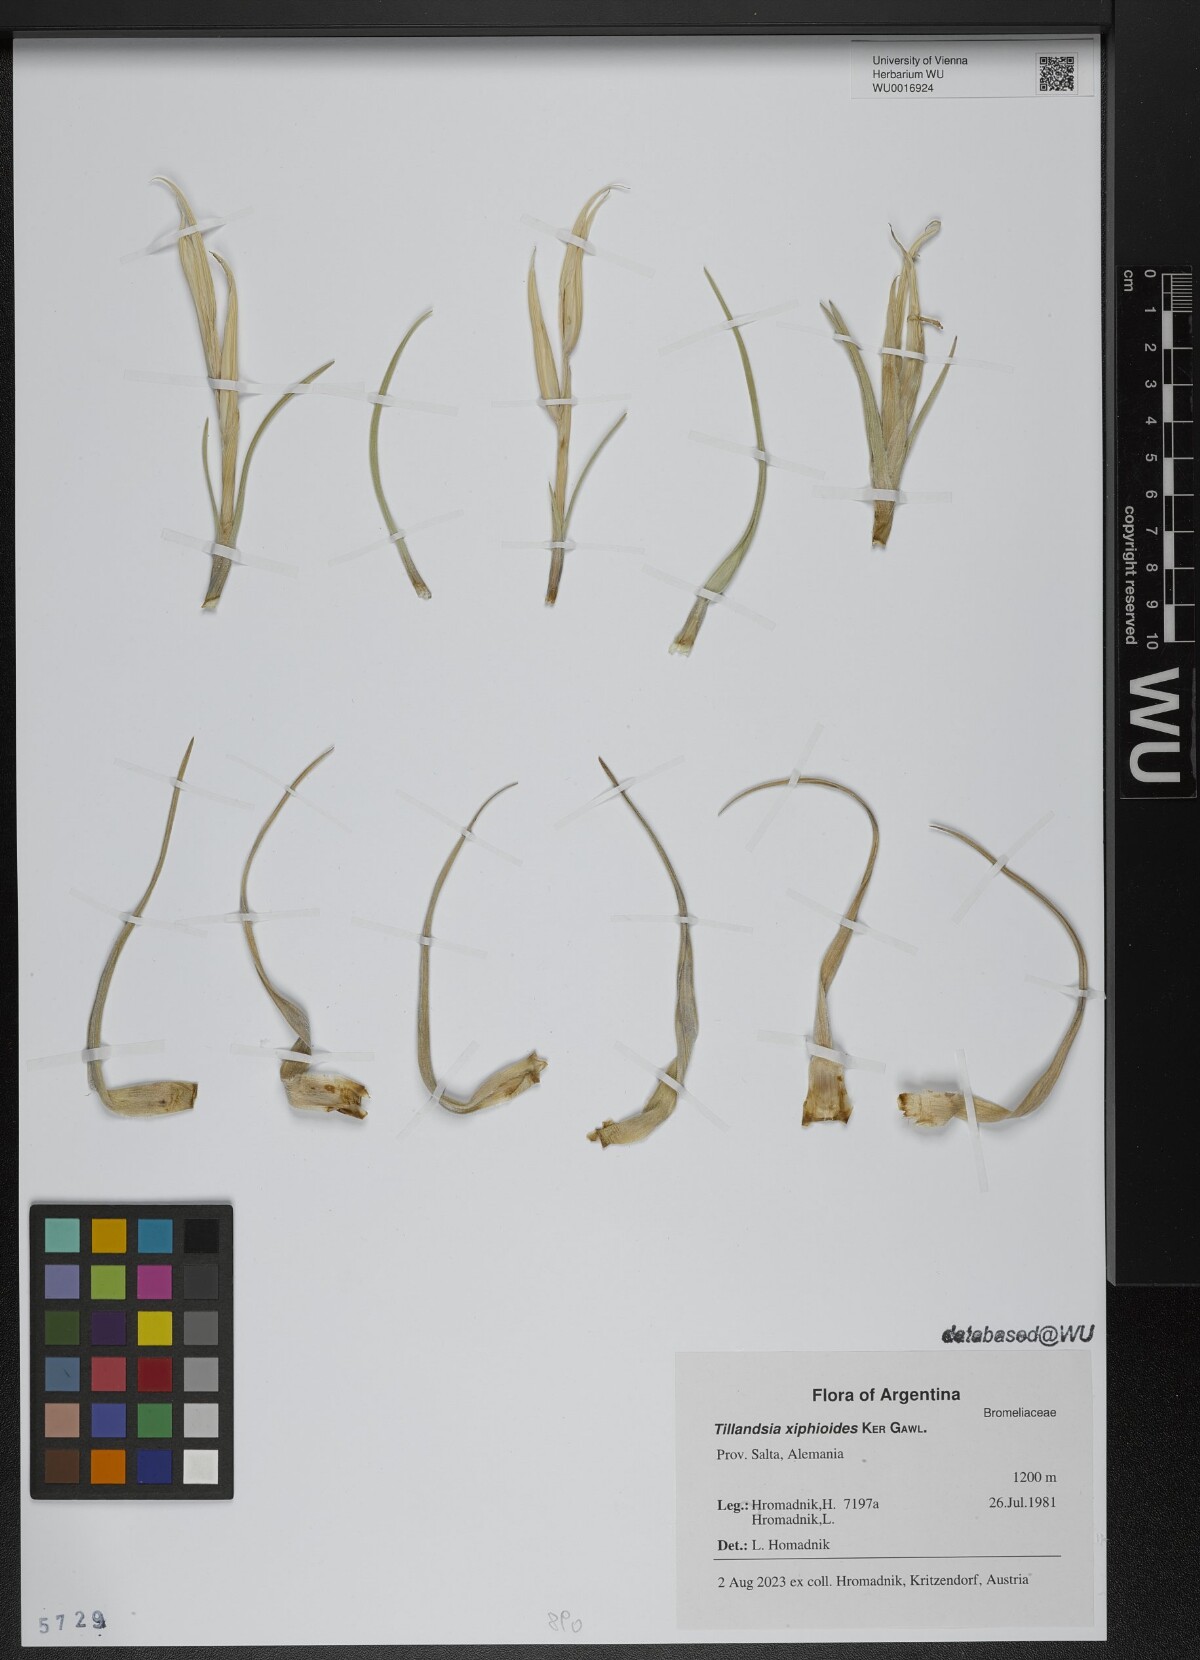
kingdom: Plantae
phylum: Tracheophyta
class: Liliopsida
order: Poales
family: Bromeliaceae
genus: Tillandsia
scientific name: Tillandsia xiphioides
